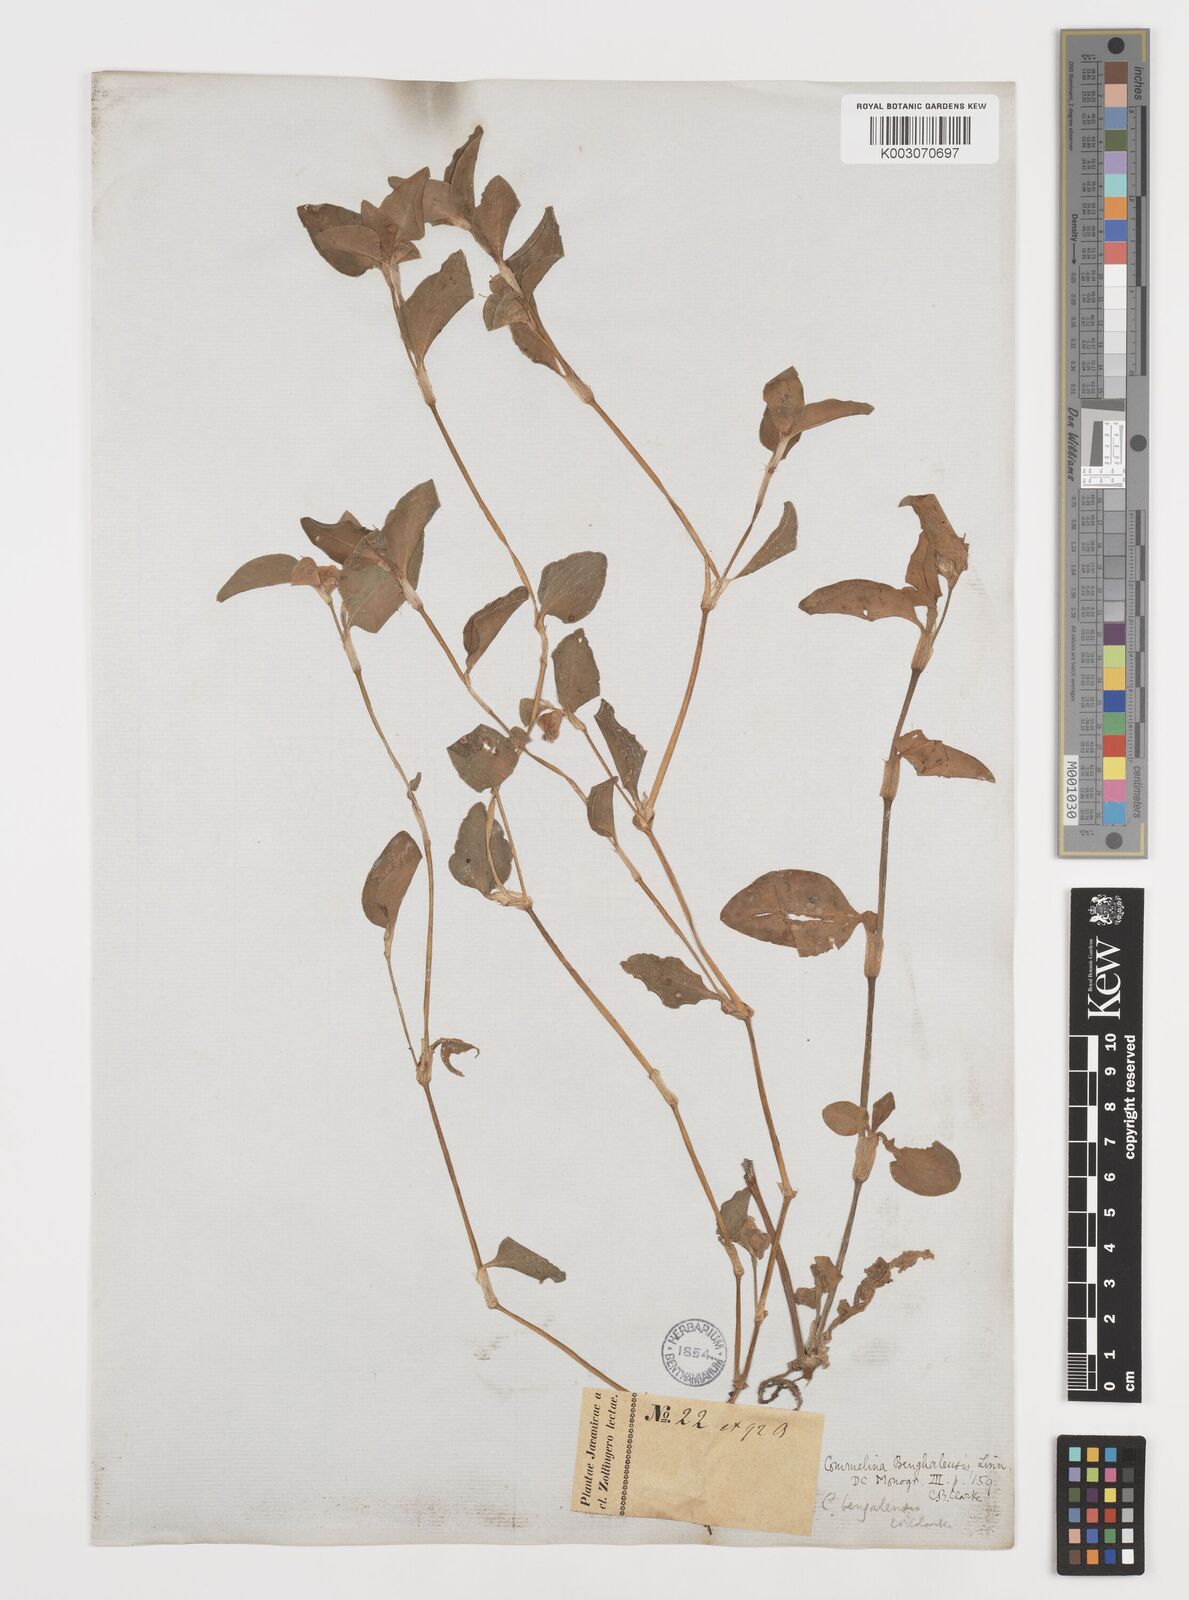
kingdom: Plantae
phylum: Tracheophyta
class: Liliopsida
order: Commelinales
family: Commelinaceae
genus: Commelina
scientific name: Commelina benghalensis
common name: Jio
